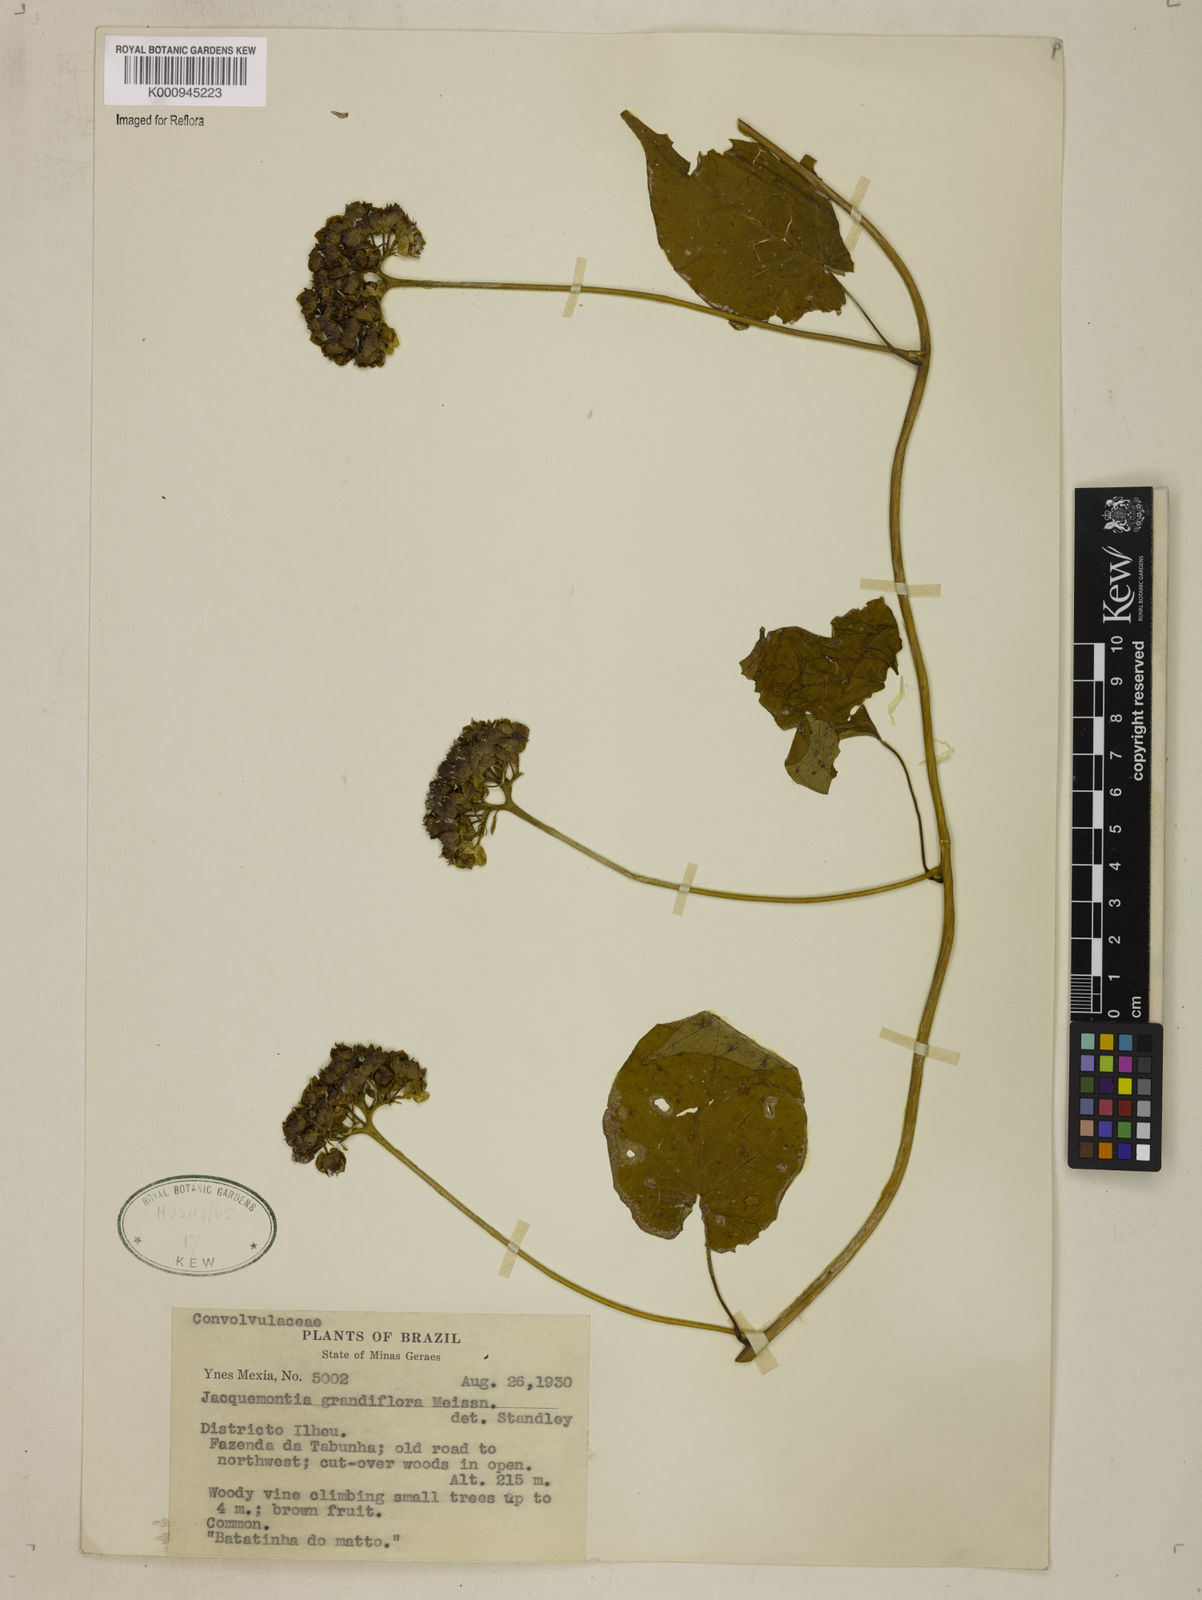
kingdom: Plantae
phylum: Tracheophyta
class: Magnoliopsida
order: Solanales
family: Convolvulaceae
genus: Jacquemontia
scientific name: Jacquemontia cumanensis
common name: Thicket clustervine
